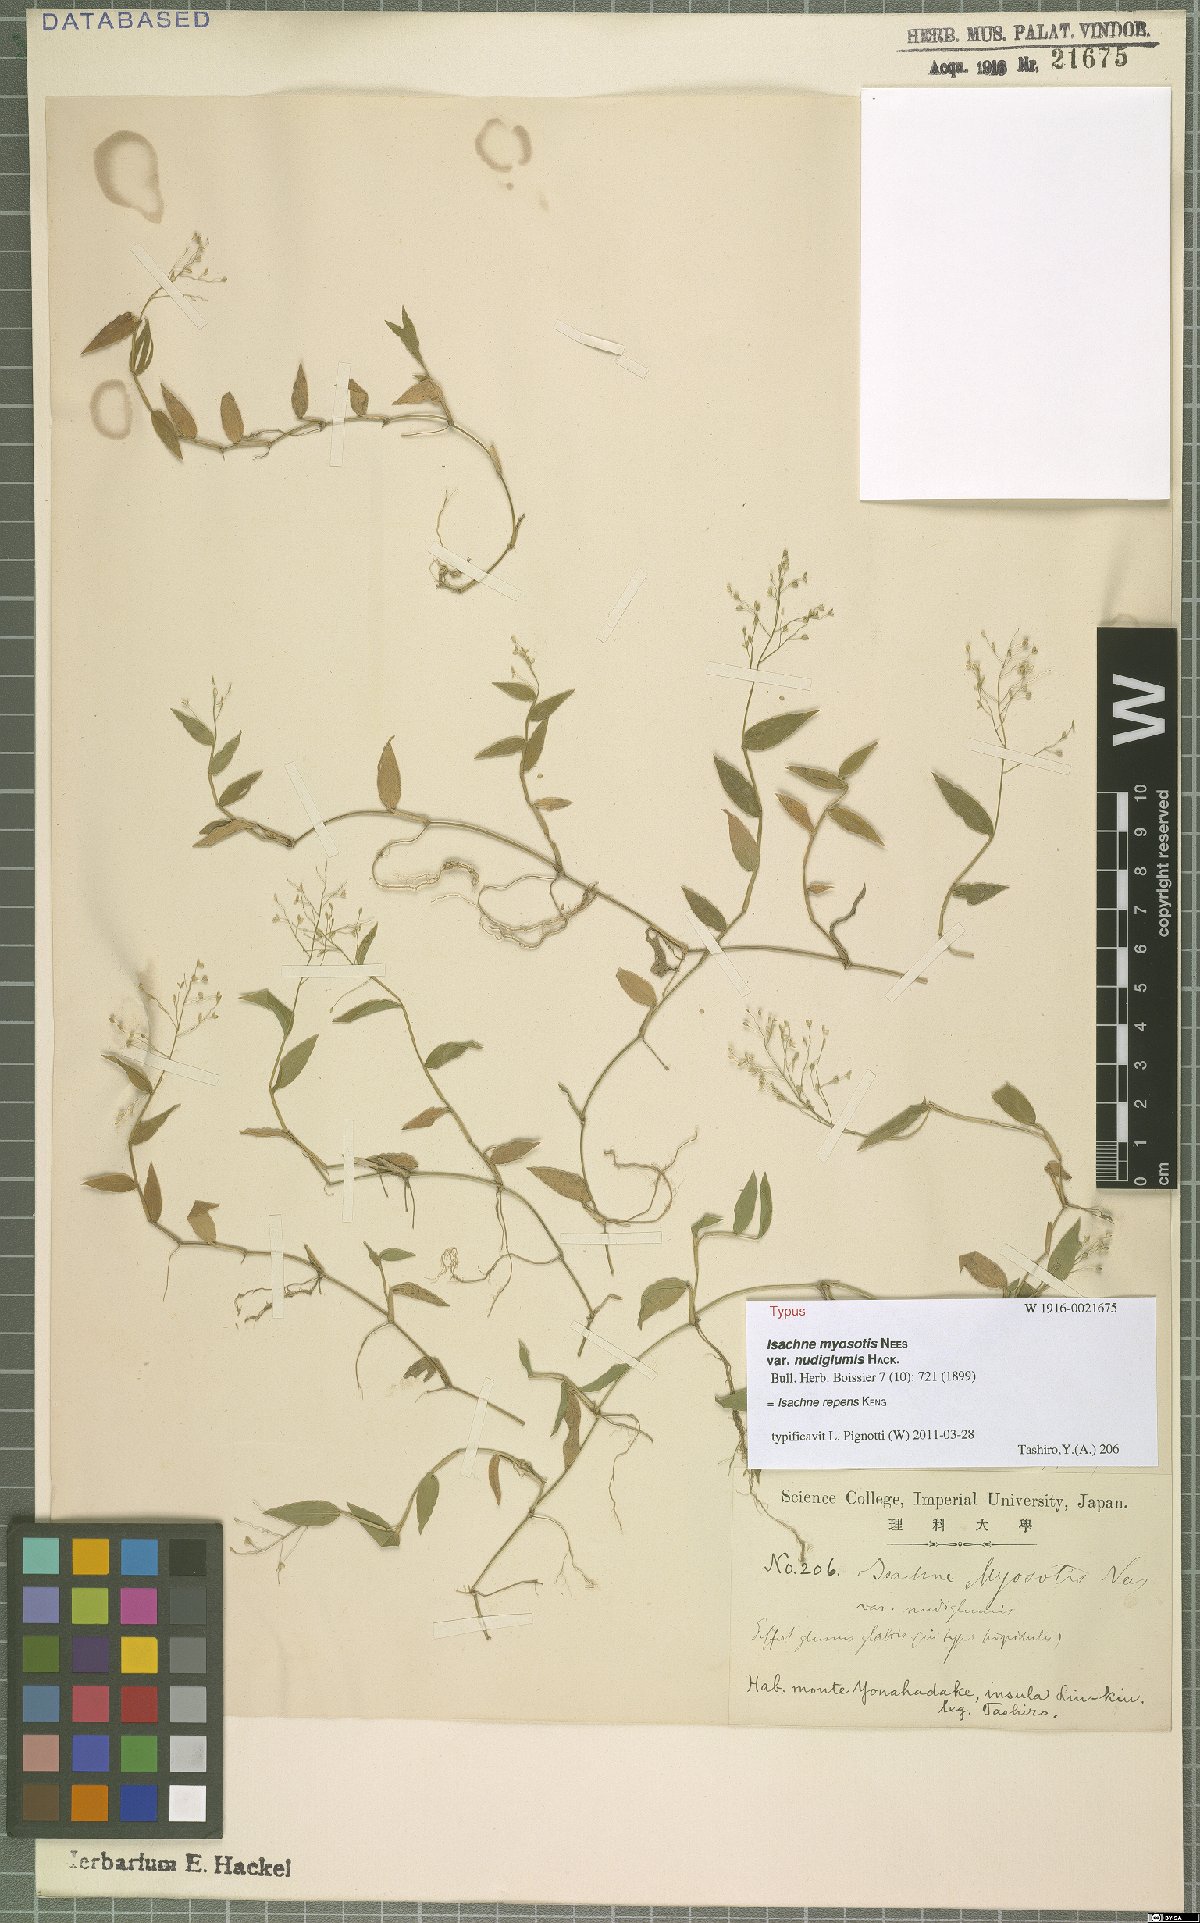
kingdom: Plantae
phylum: Tracheophyta
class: Liliopsida
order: Poales
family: Poaceae
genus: Isachne
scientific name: Isachne commelinifolia
